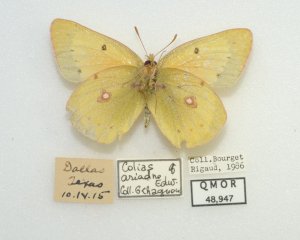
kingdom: Animalia
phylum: Arthropoda
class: Insecta
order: Lepidoptera
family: Pieridae
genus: Colias
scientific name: Colias eurytheme
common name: Orange Sulphur
